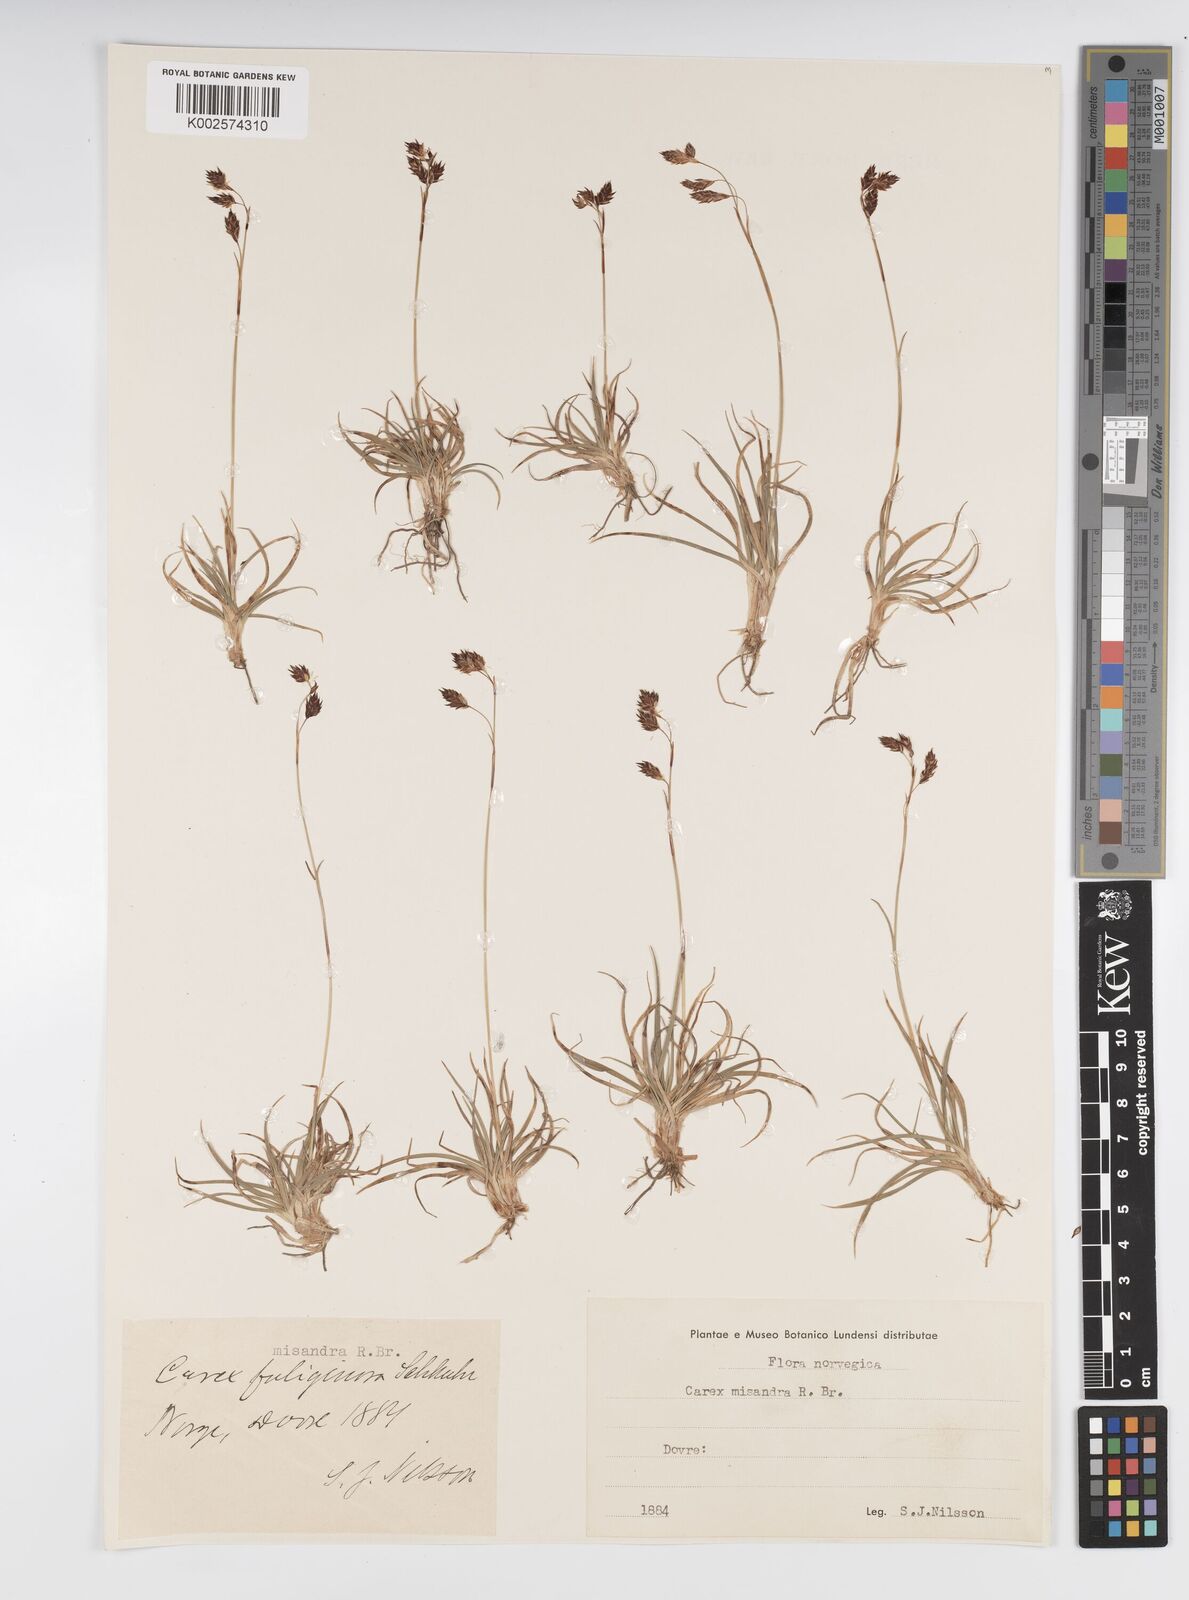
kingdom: Plantae
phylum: Tracheophyta
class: Liliopsida
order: Poales
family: Cyperaceae
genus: Carex
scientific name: Carex fuliginosa
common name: Few-flowered sedge
